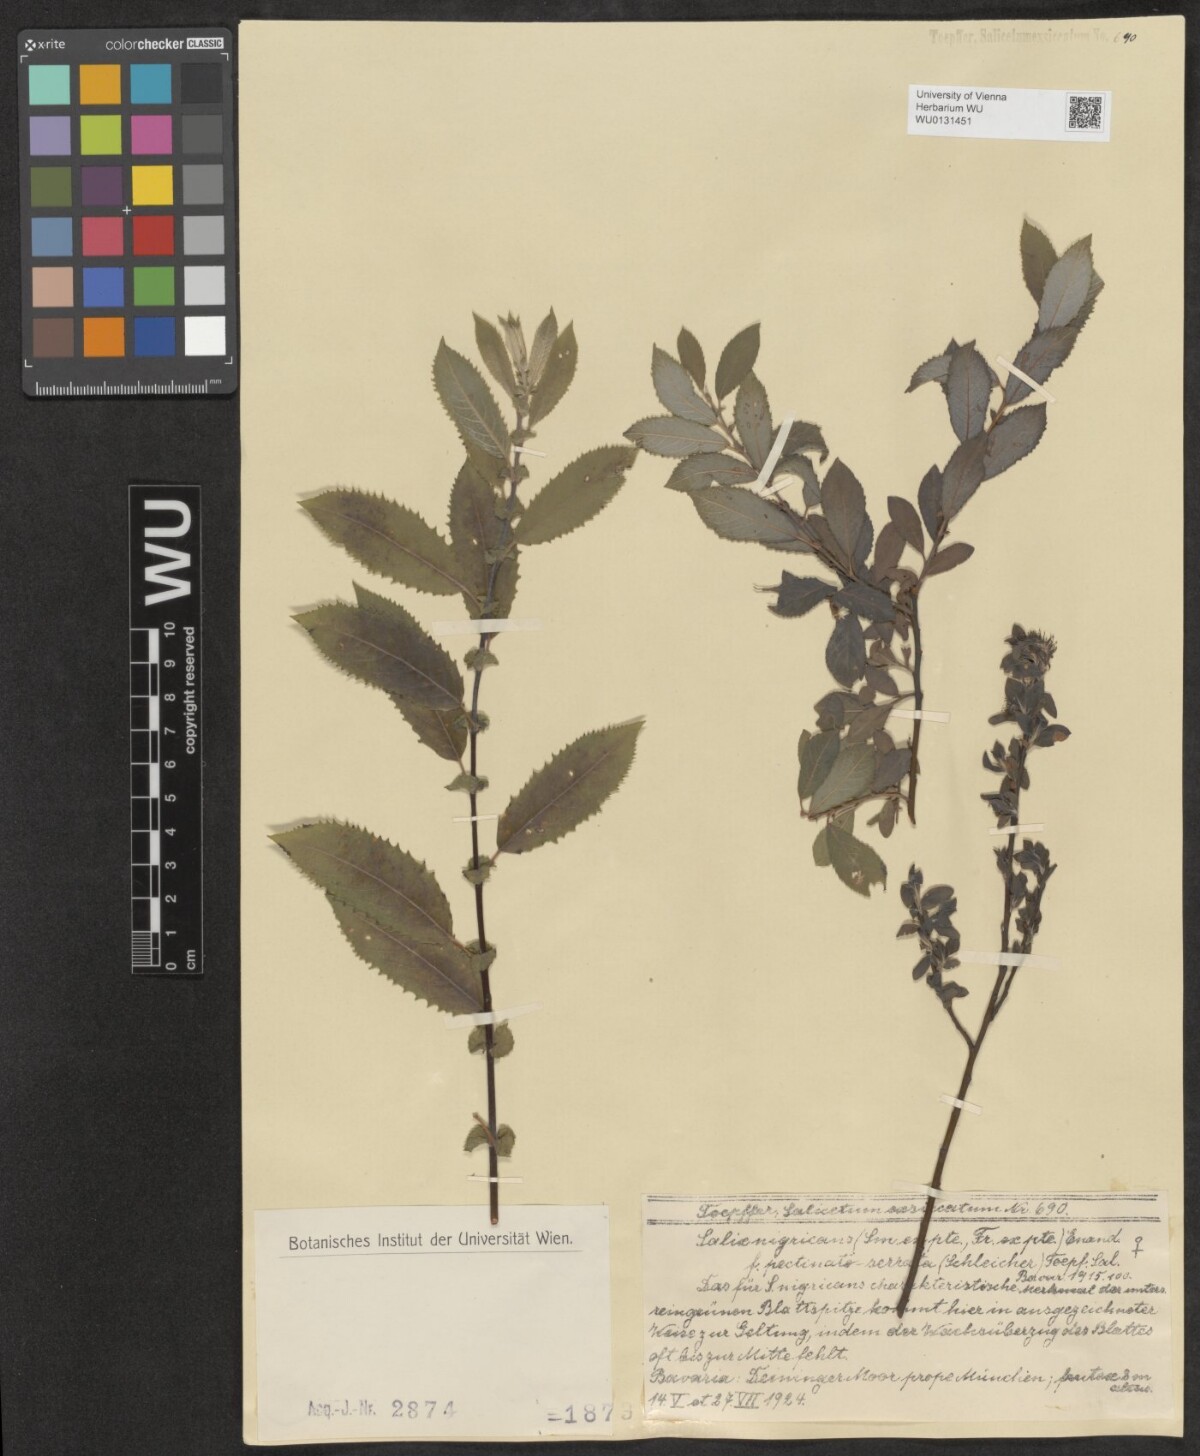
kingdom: Plantae
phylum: Tracheophyta
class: Magnoliopsida
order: Malpighiales
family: Salicaceae
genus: Salix
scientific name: Salix myrsinifolia
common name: Dark-leaved willow
